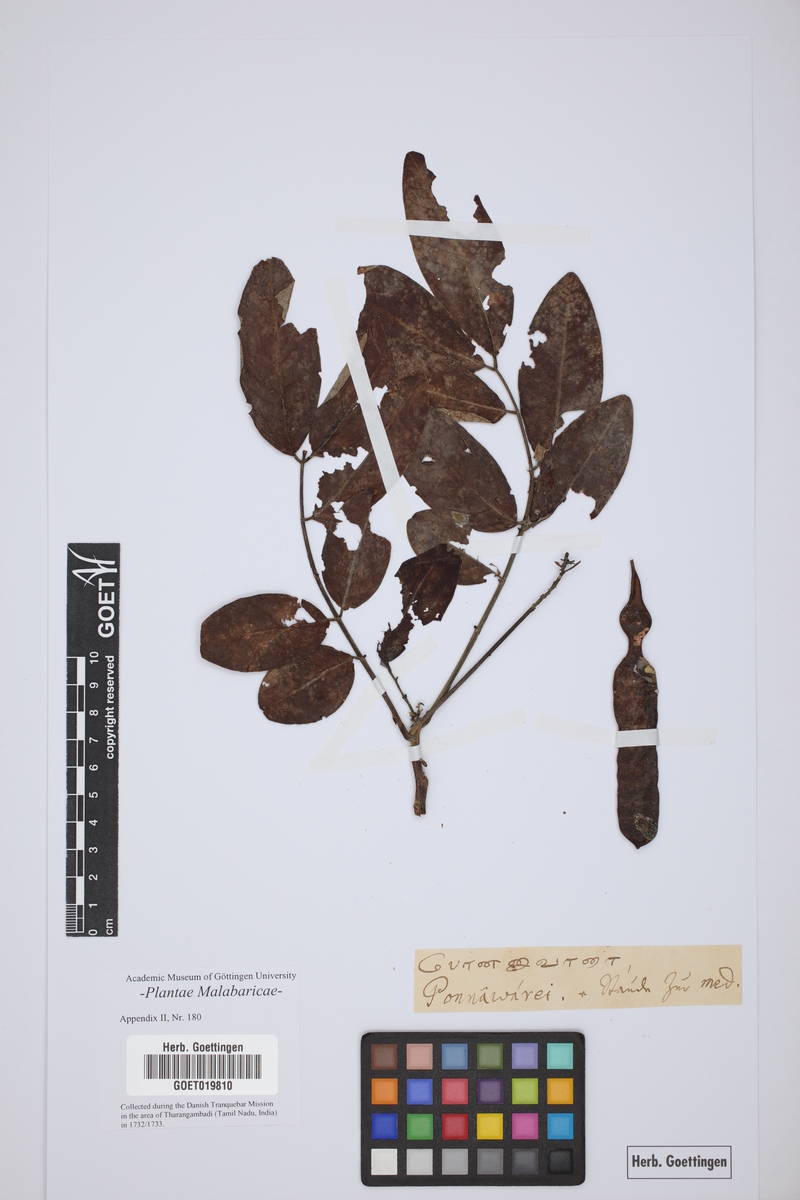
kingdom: Plantae
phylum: Tracheophyta
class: Magnoliopsida
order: Fabales
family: Fabaceae
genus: Senna
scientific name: Senna sophera
